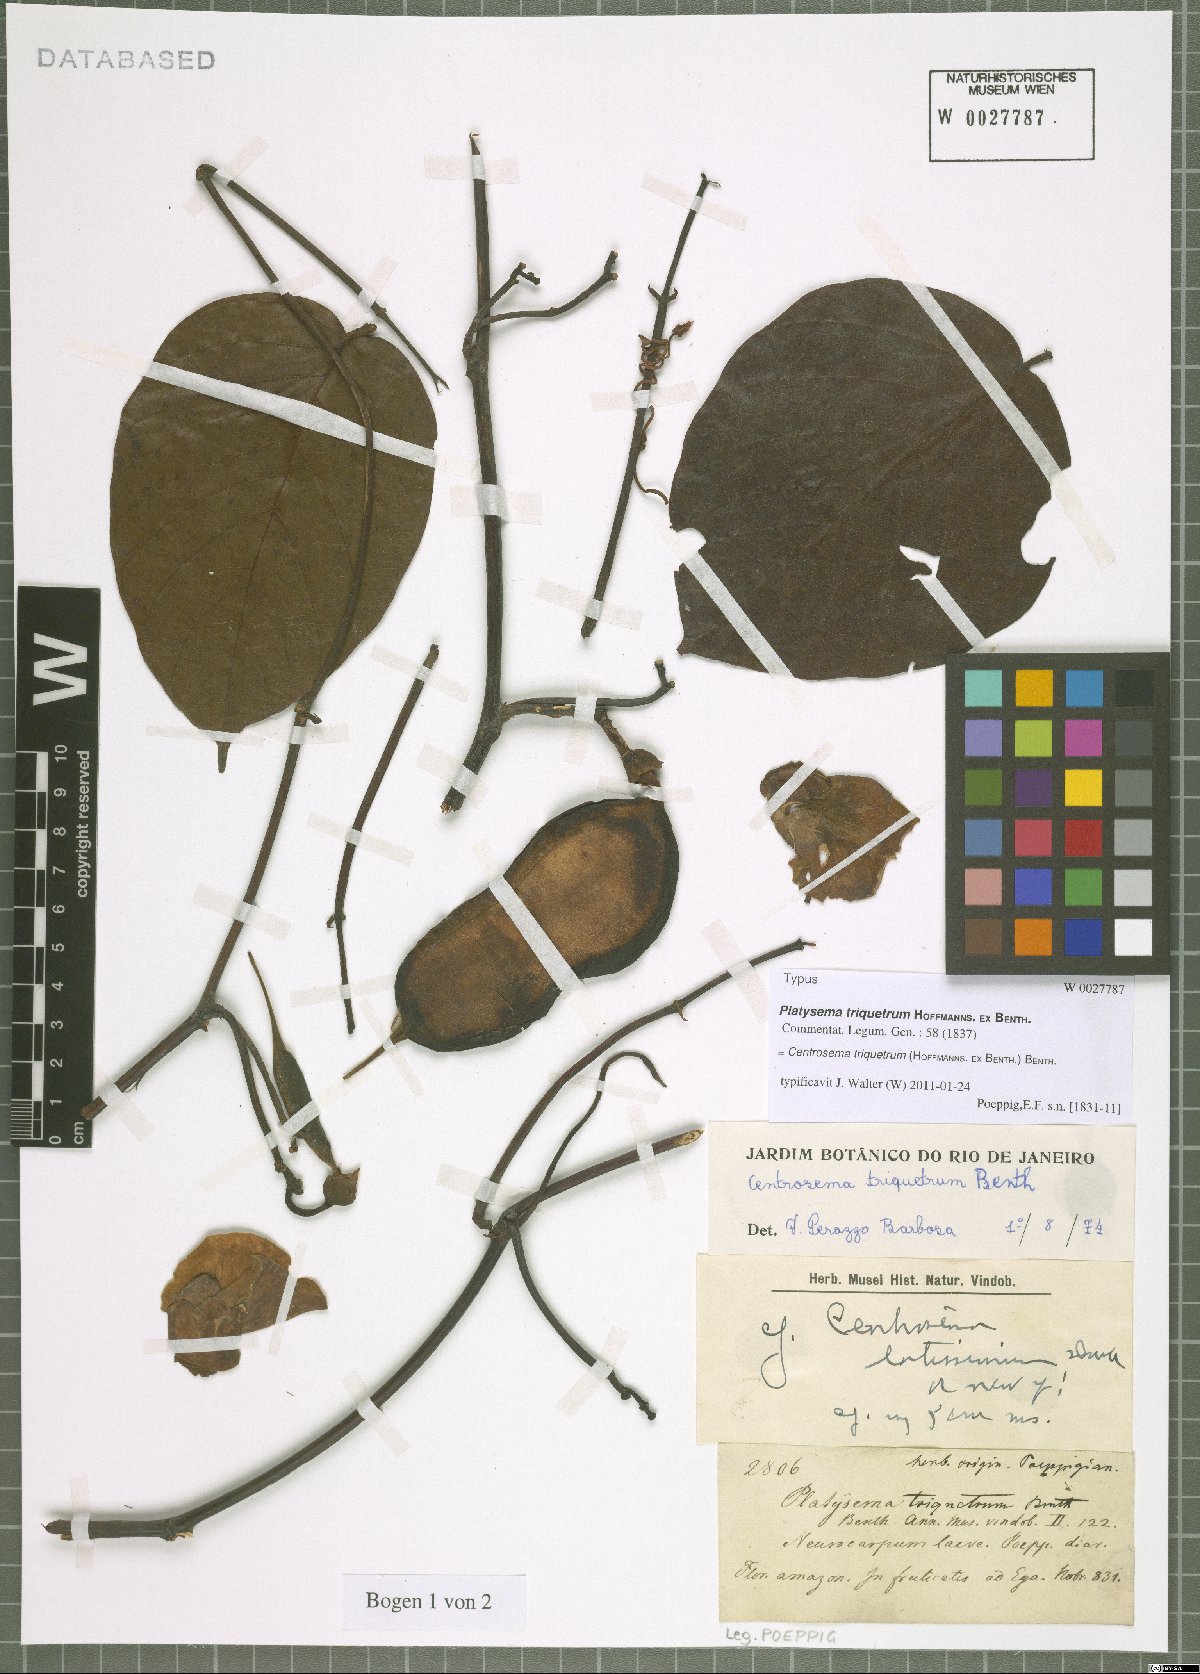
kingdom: Plantae
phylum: Tracheophyta
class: Magnoliopsida
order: Fabales
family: Fabaceae
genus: Centrosema
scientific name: Centrosema triquetrum
